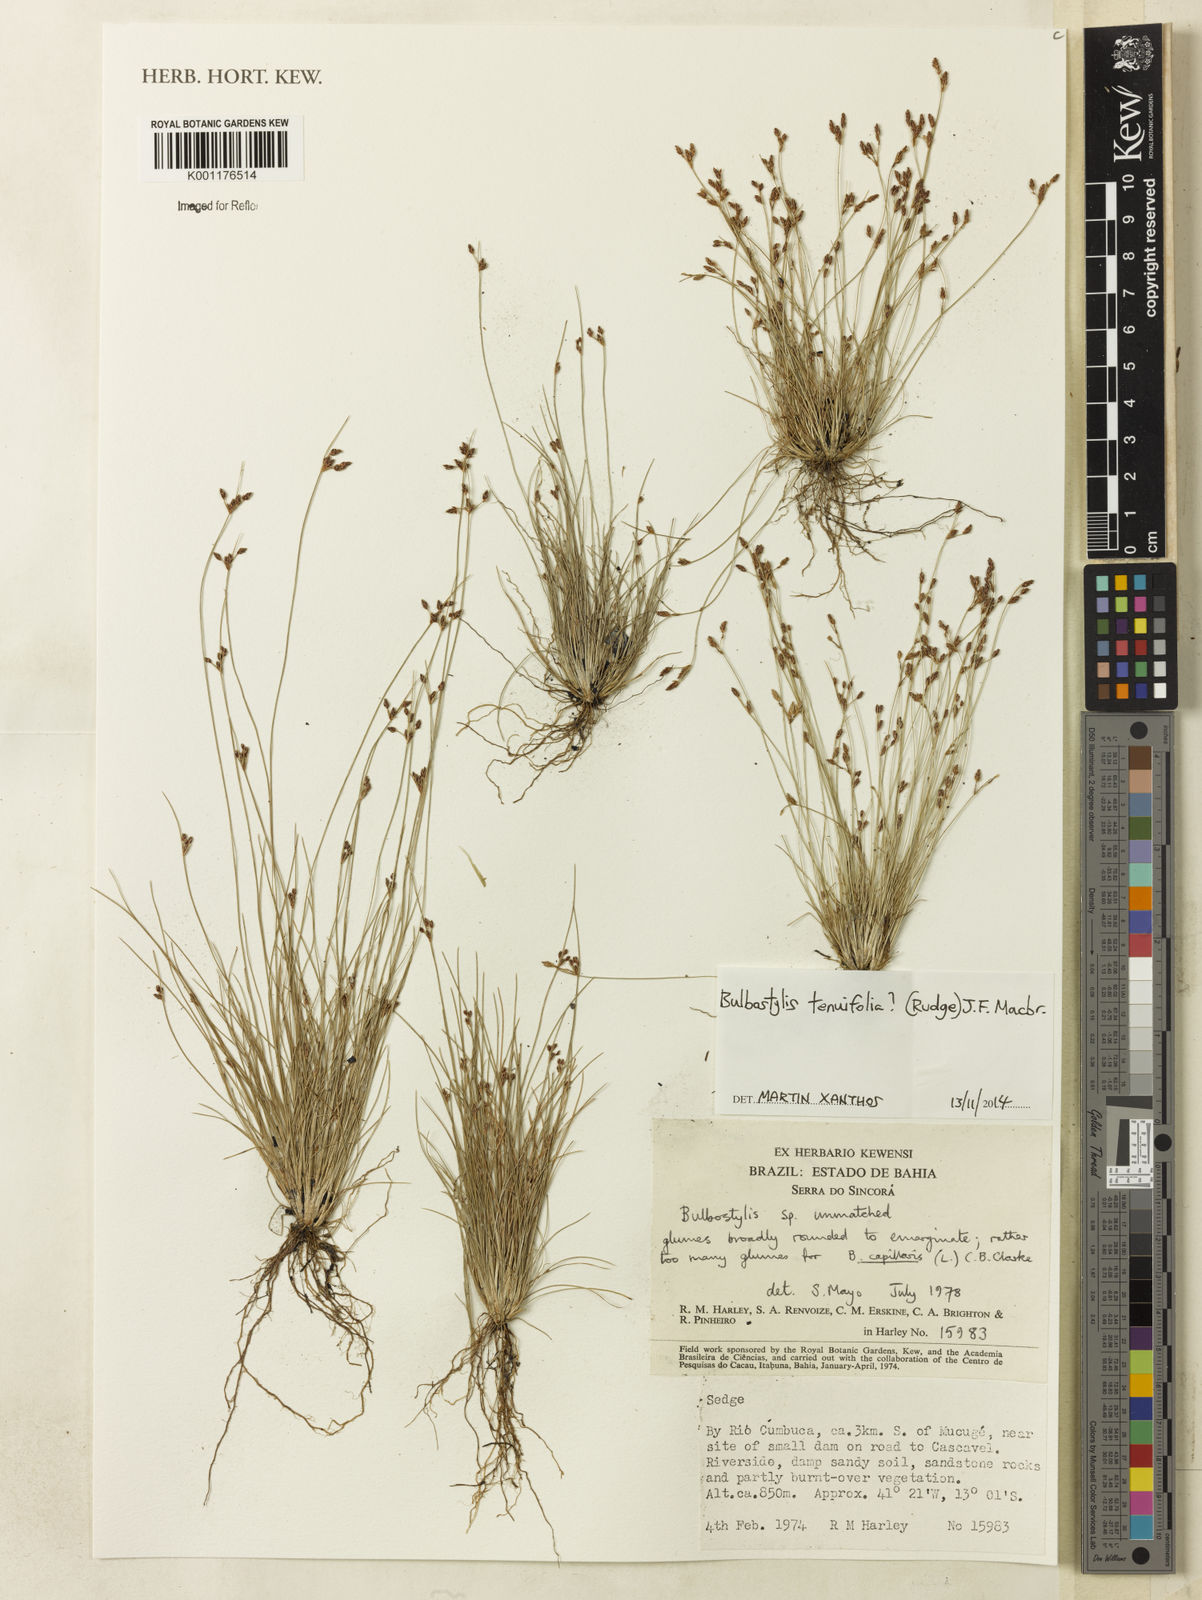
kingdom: Plantae
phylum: Tracheophyta
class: Liliopsida
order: Poales
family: Cyperaceae
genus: Bulbostylis
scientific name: Bulbostylis tenuifolia
